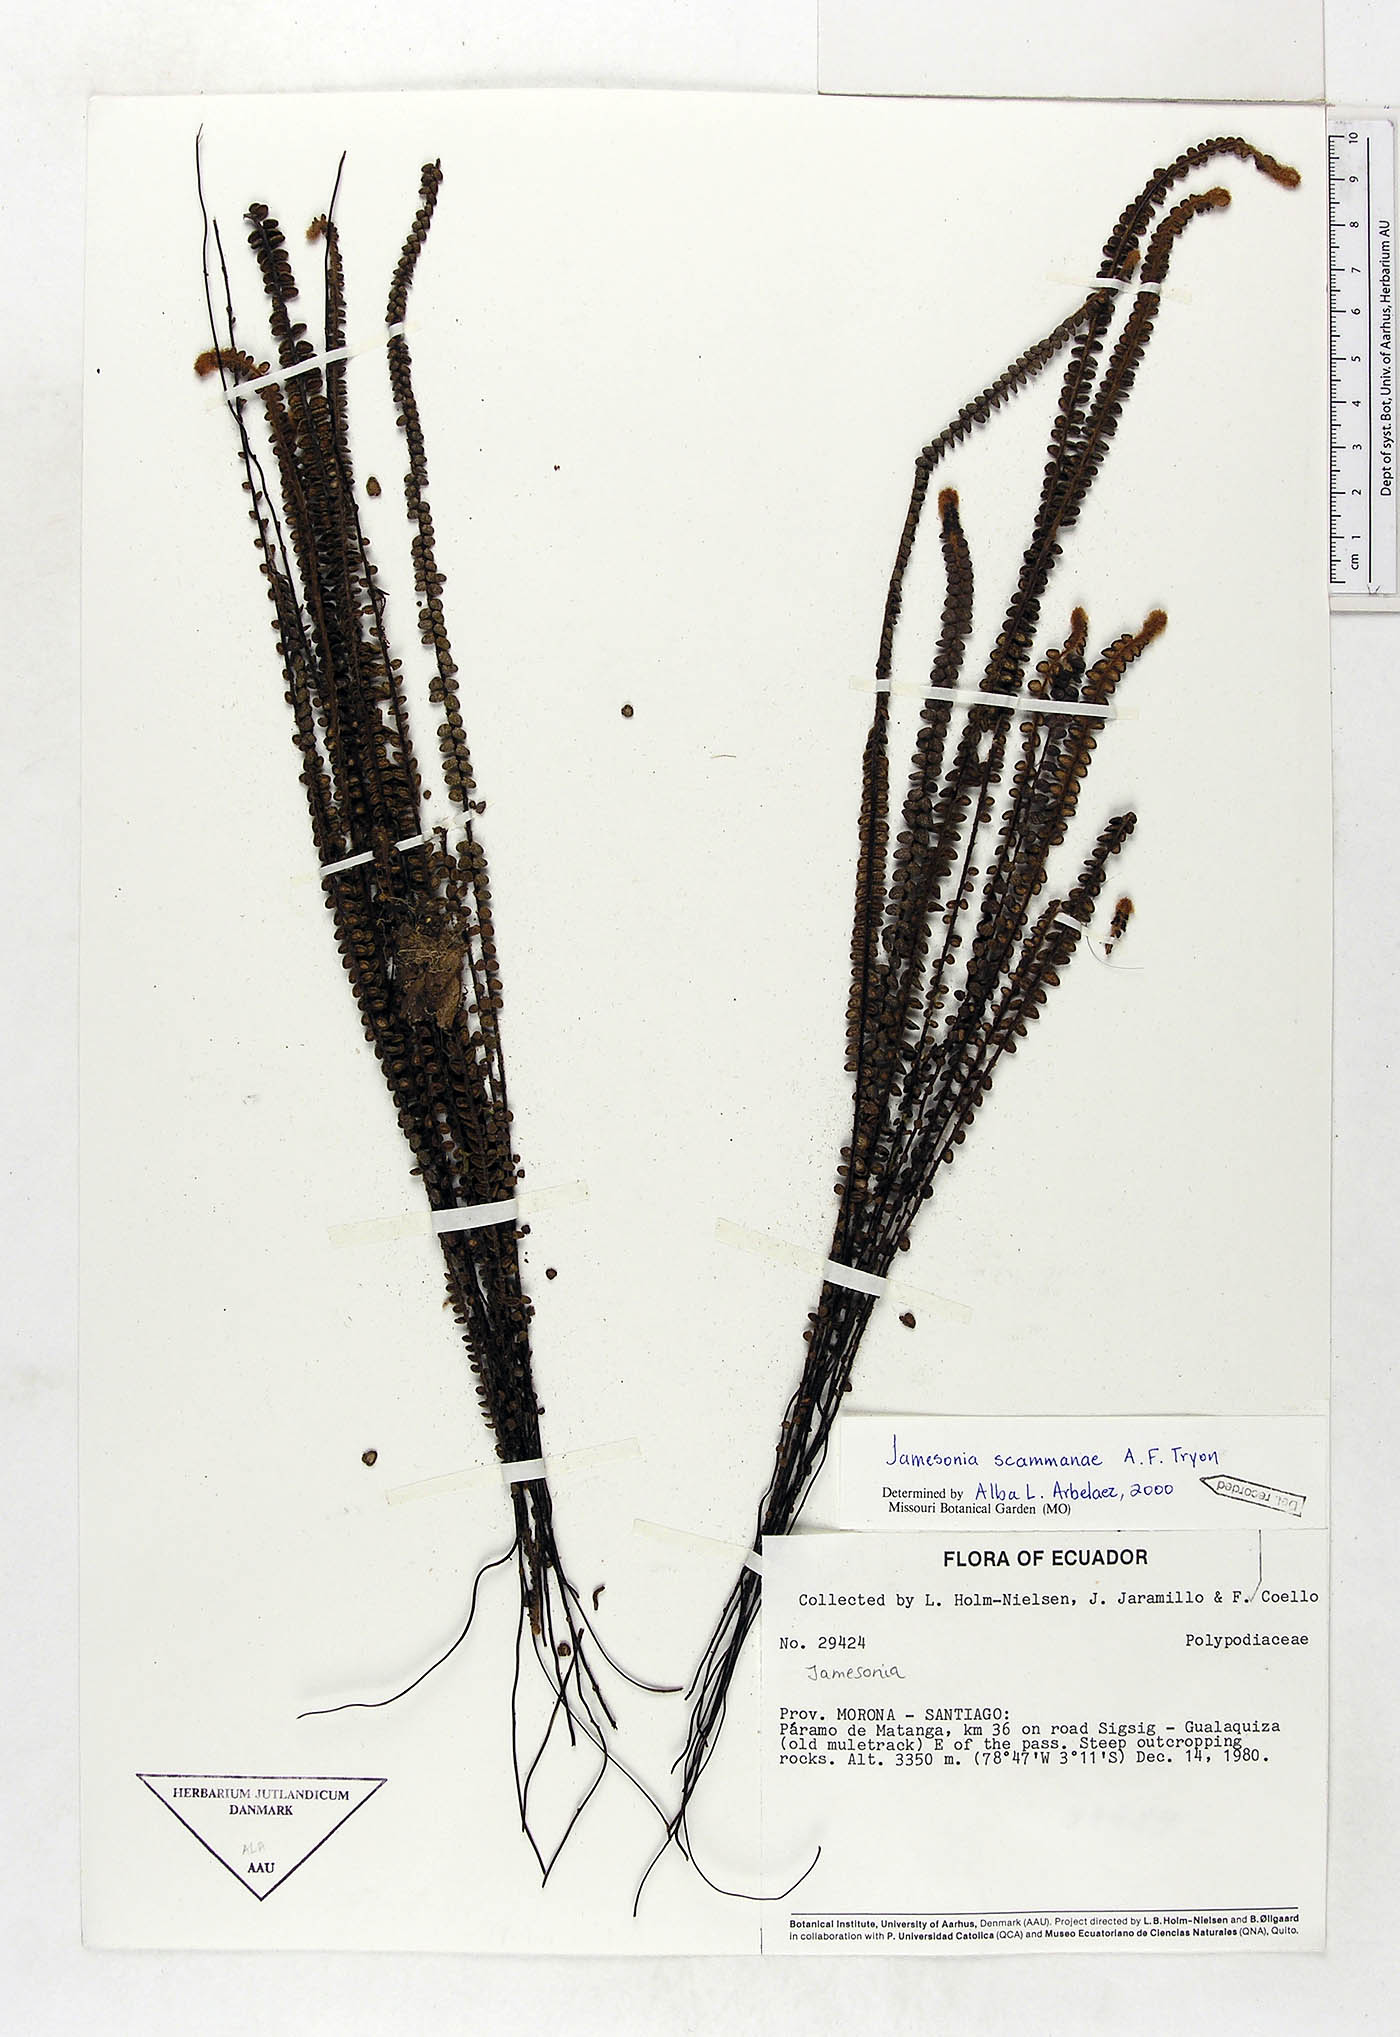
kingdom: Plantae
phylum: Tracheophyta
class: Polypodiopsida
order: Polypodiales
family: Pteridaceae
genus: Jamesonia
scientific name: Jamesonia scammanae
